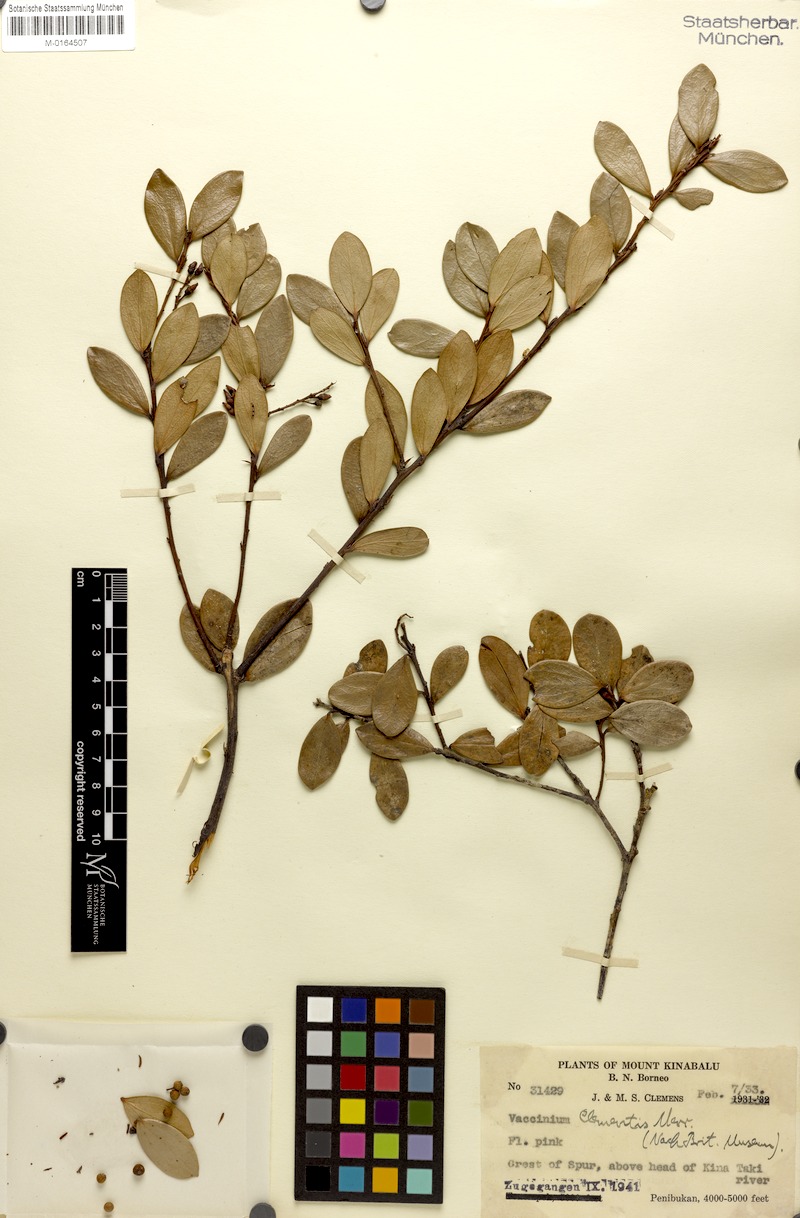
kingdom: Plantae
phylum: Tracheophyta
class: Magnoliopsida
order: Ericales
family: Ericaceae
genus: Vaccinium
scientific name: Vaccinium clementis
